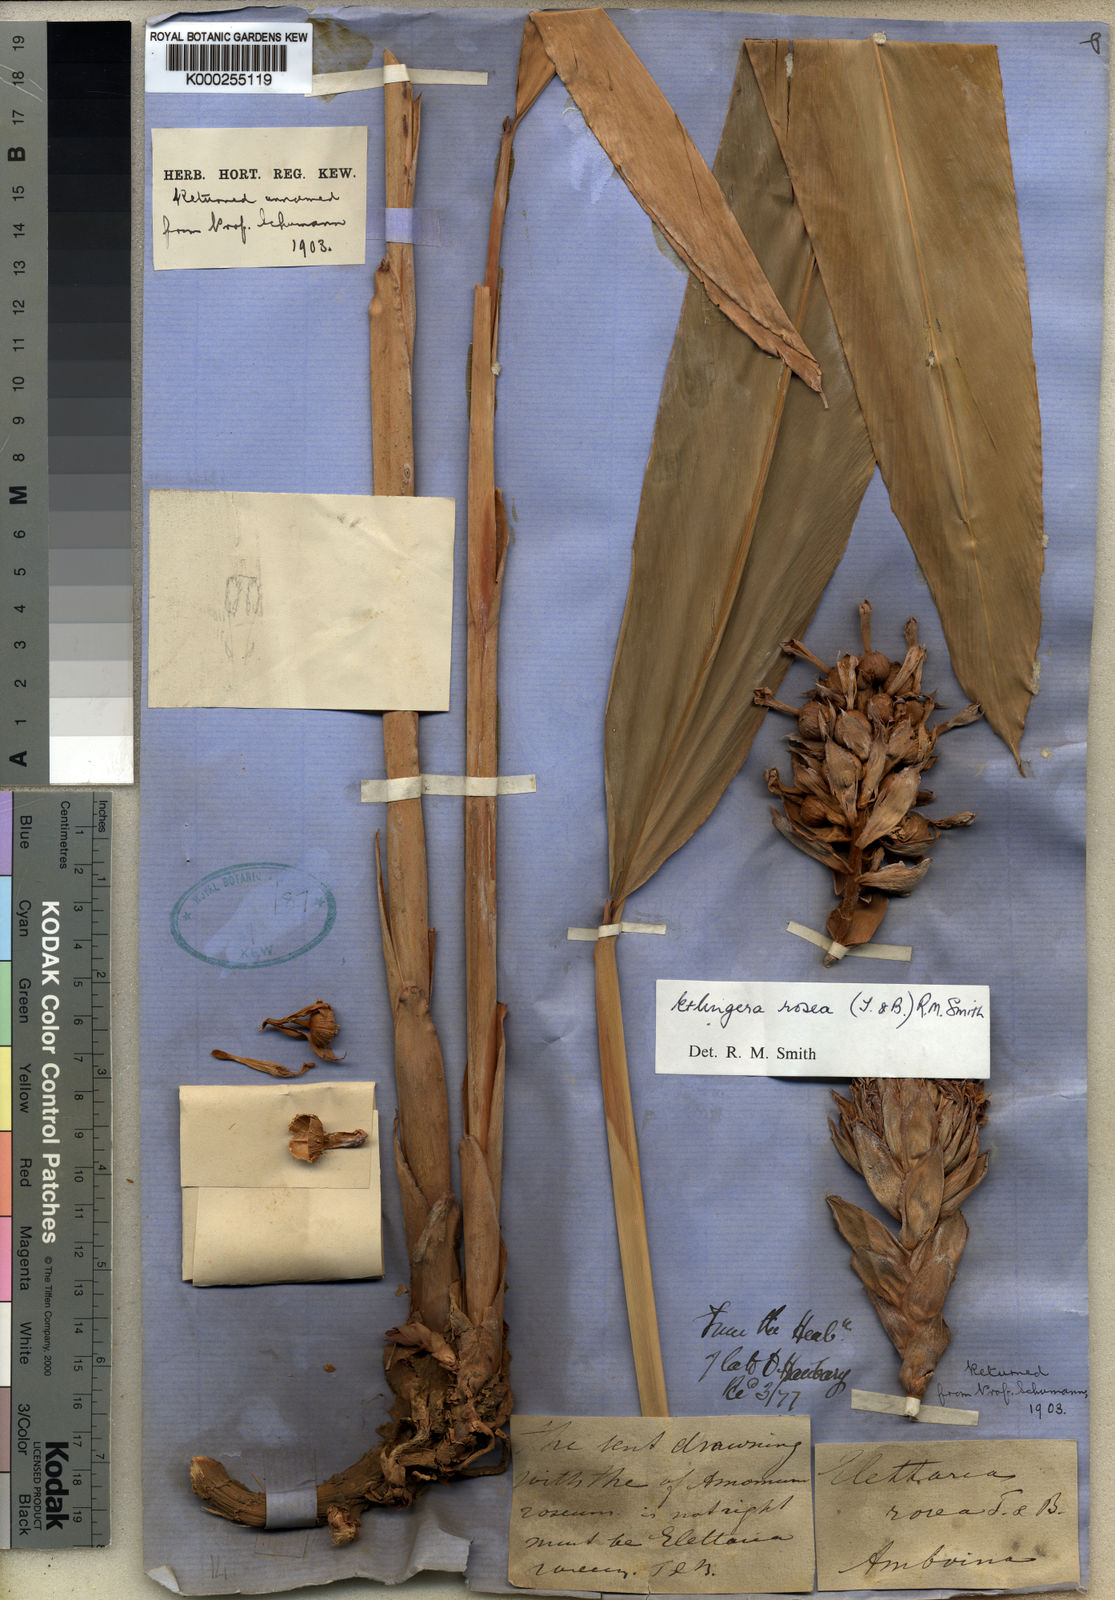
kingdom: Plantae
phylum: Tracheophyta
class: Liliopsida
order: Zingiberales
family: Zingiberaceae
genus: Etlingera
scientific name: Etlingera alba
